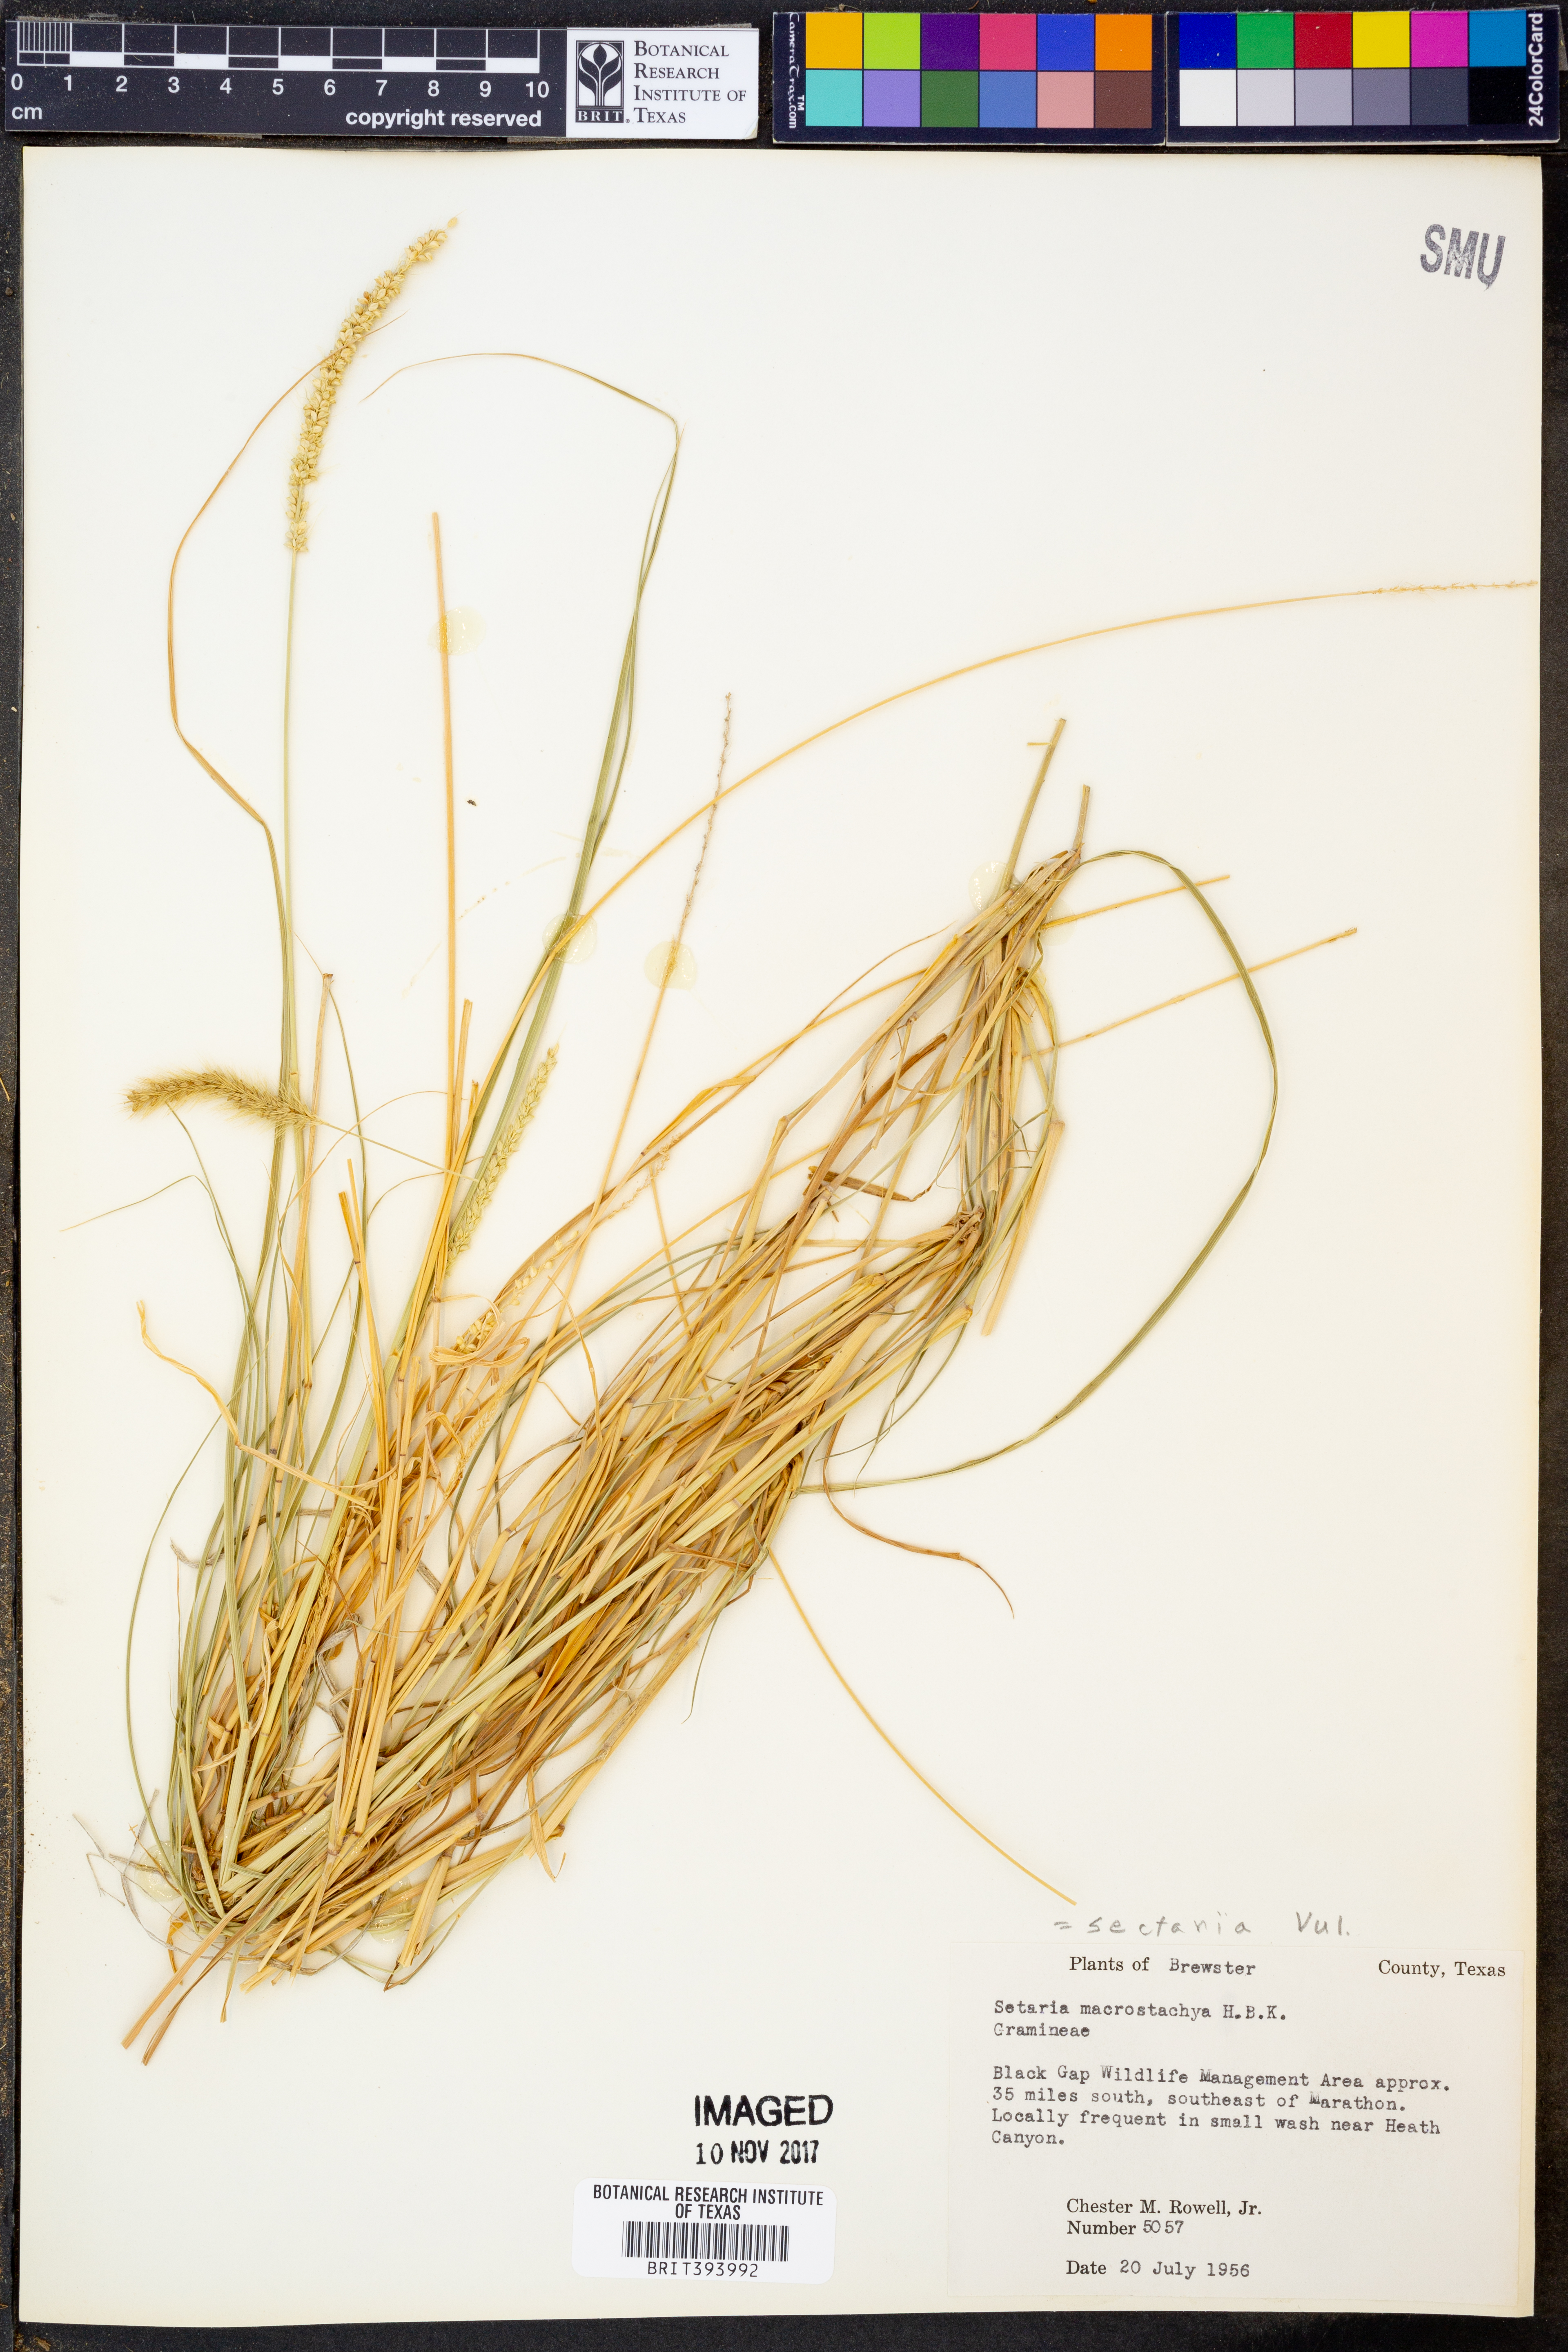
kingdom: Plantae
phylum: Tracheophyta
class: Liliopsida
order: Poales
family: Poaceae
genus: Setaria
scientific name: Setaria macrostachya
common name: Plains bristle grass
